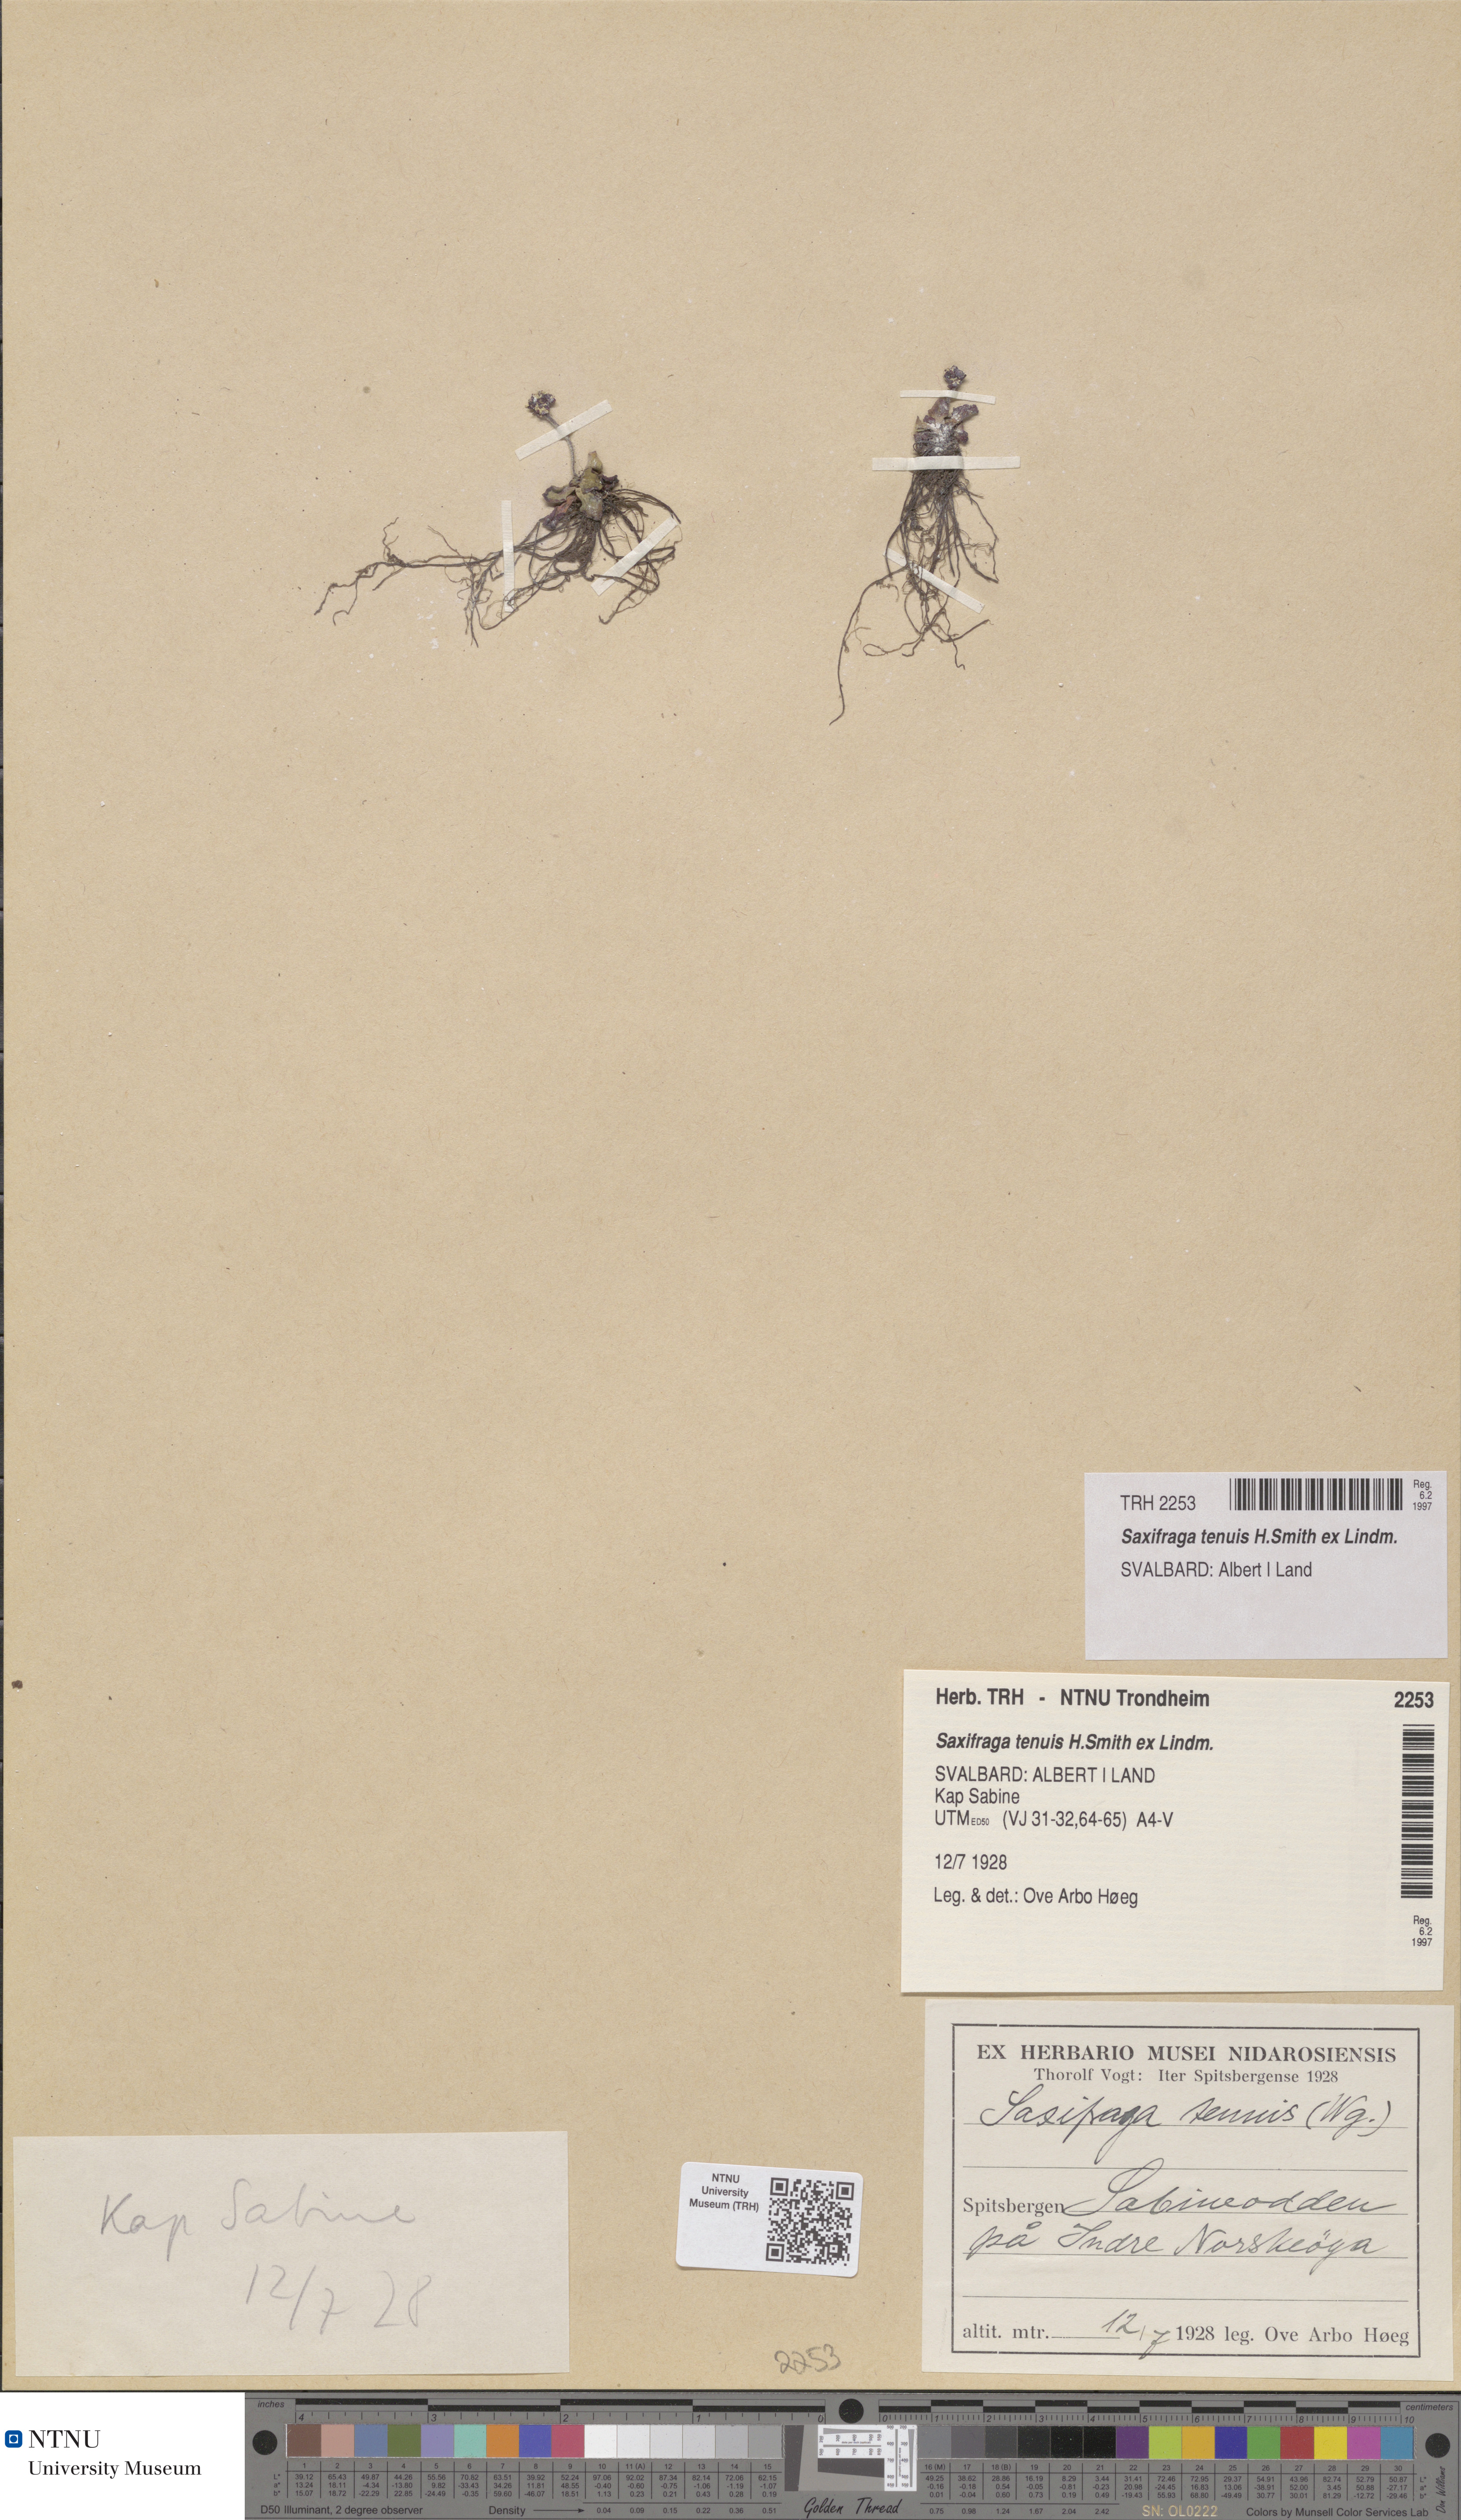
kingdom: Plantae
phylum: Tracheophyta
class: Magnoliopsida
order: Saxifragales
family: Saxifragaceae
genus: Micranthes
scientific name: Micranthes tenuis
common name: Ottertail pass saxifrage
